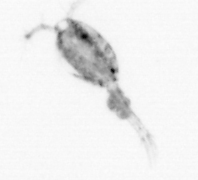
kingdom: Animalia
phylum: Arthropoda
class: Copepoda
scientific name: Copepoda
